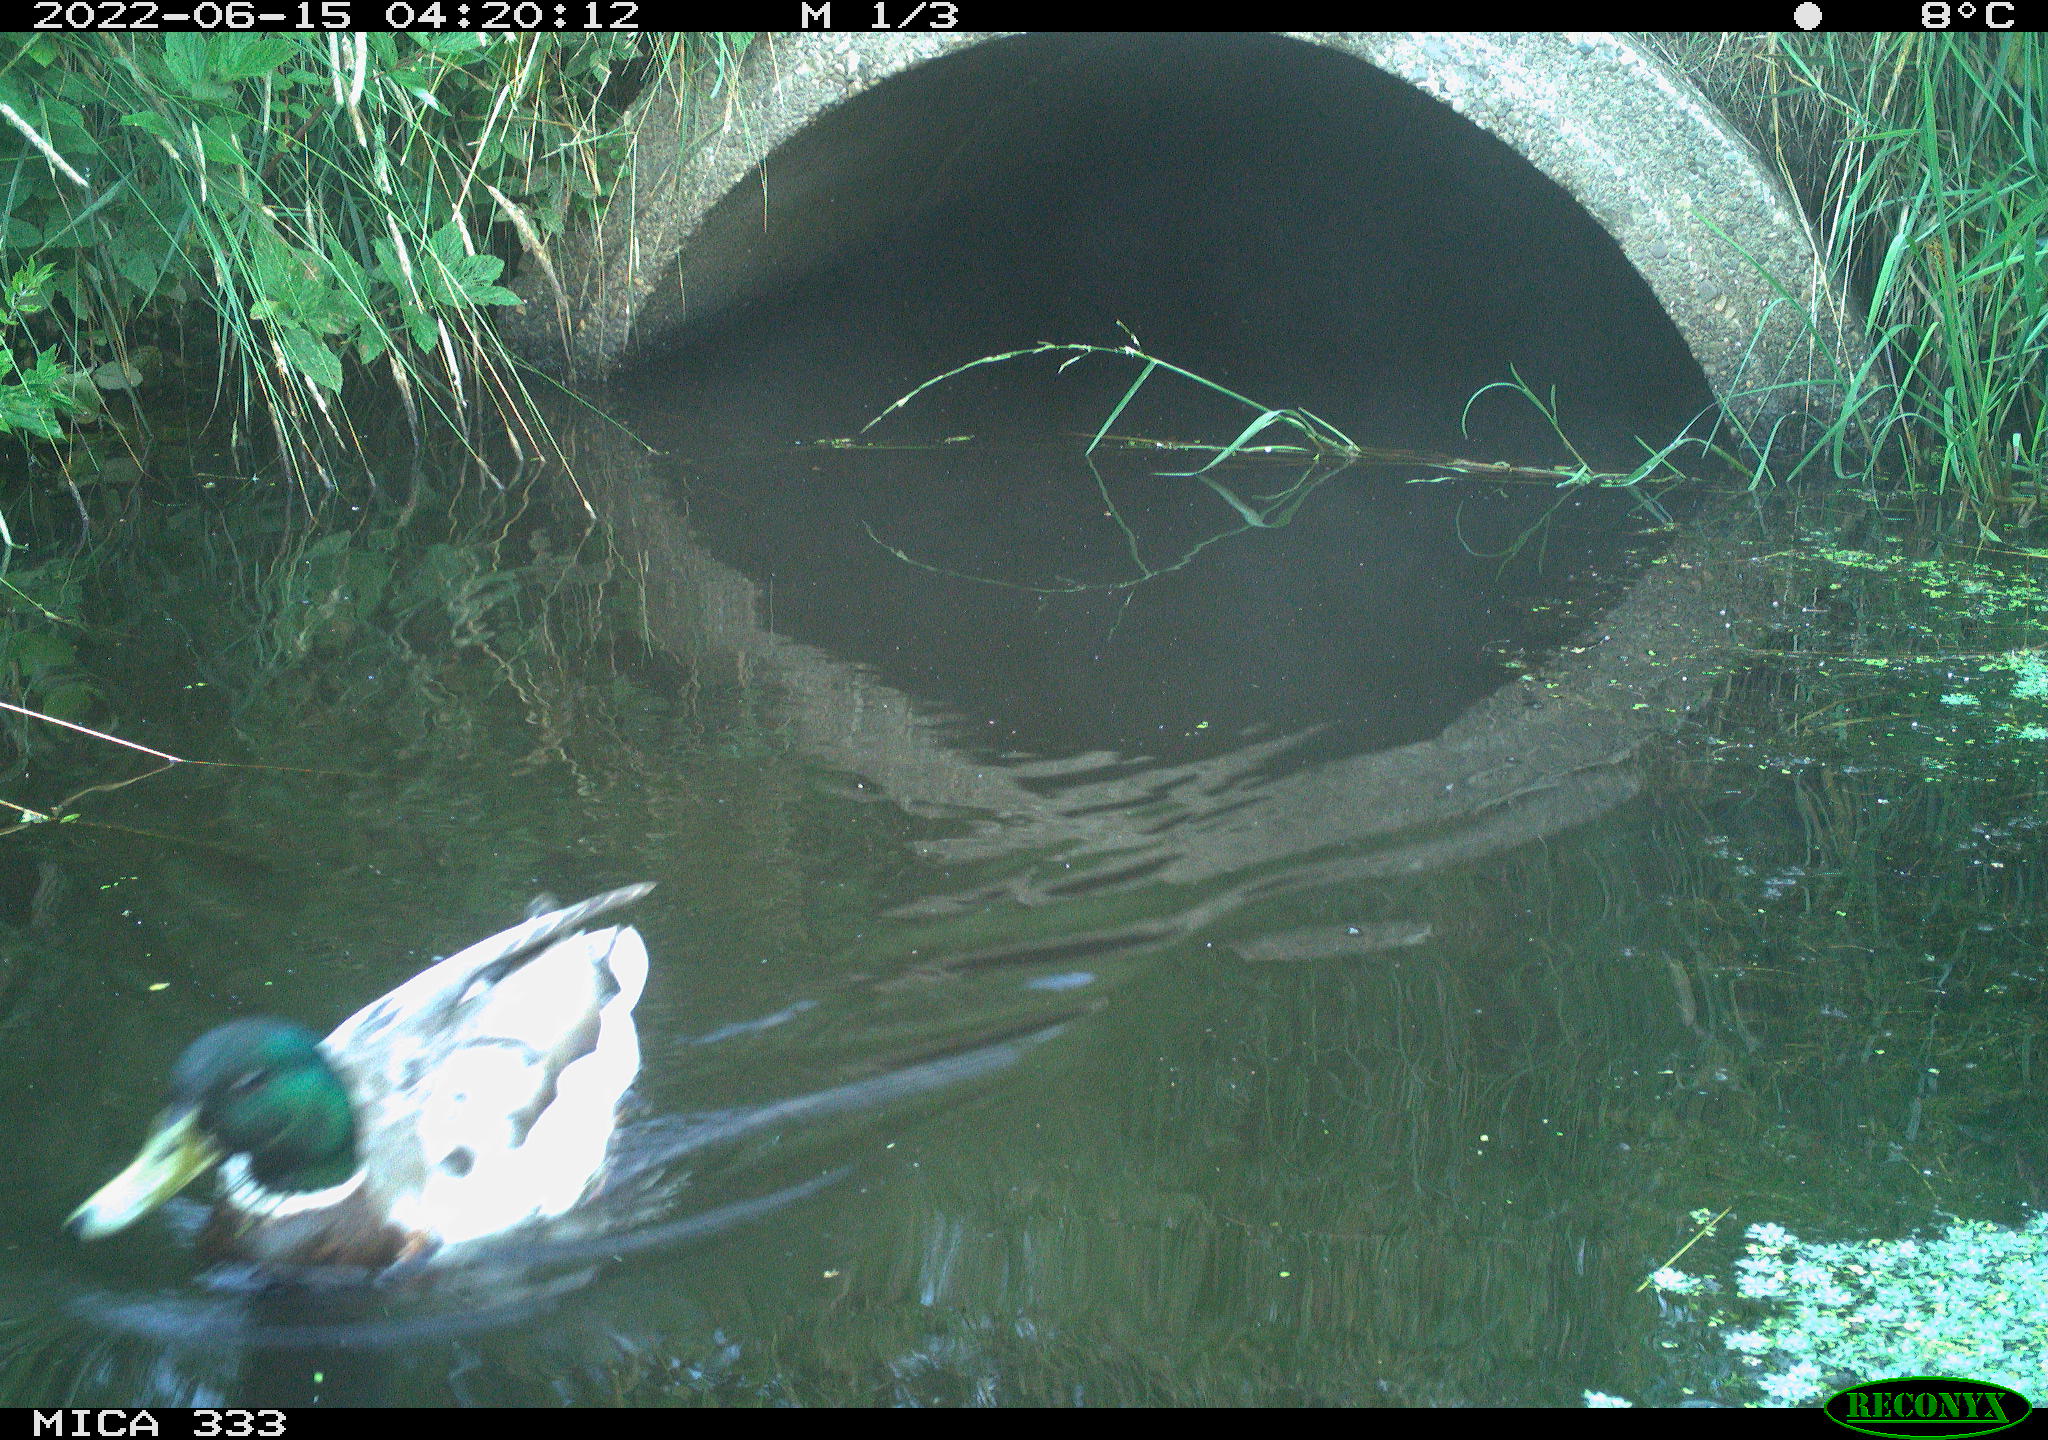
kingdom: Animalia
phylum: Chordata
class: Aves
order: Anseriformes
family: Anatidae
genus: Anas
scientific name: Anas platyrhynchos
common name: Mallard
